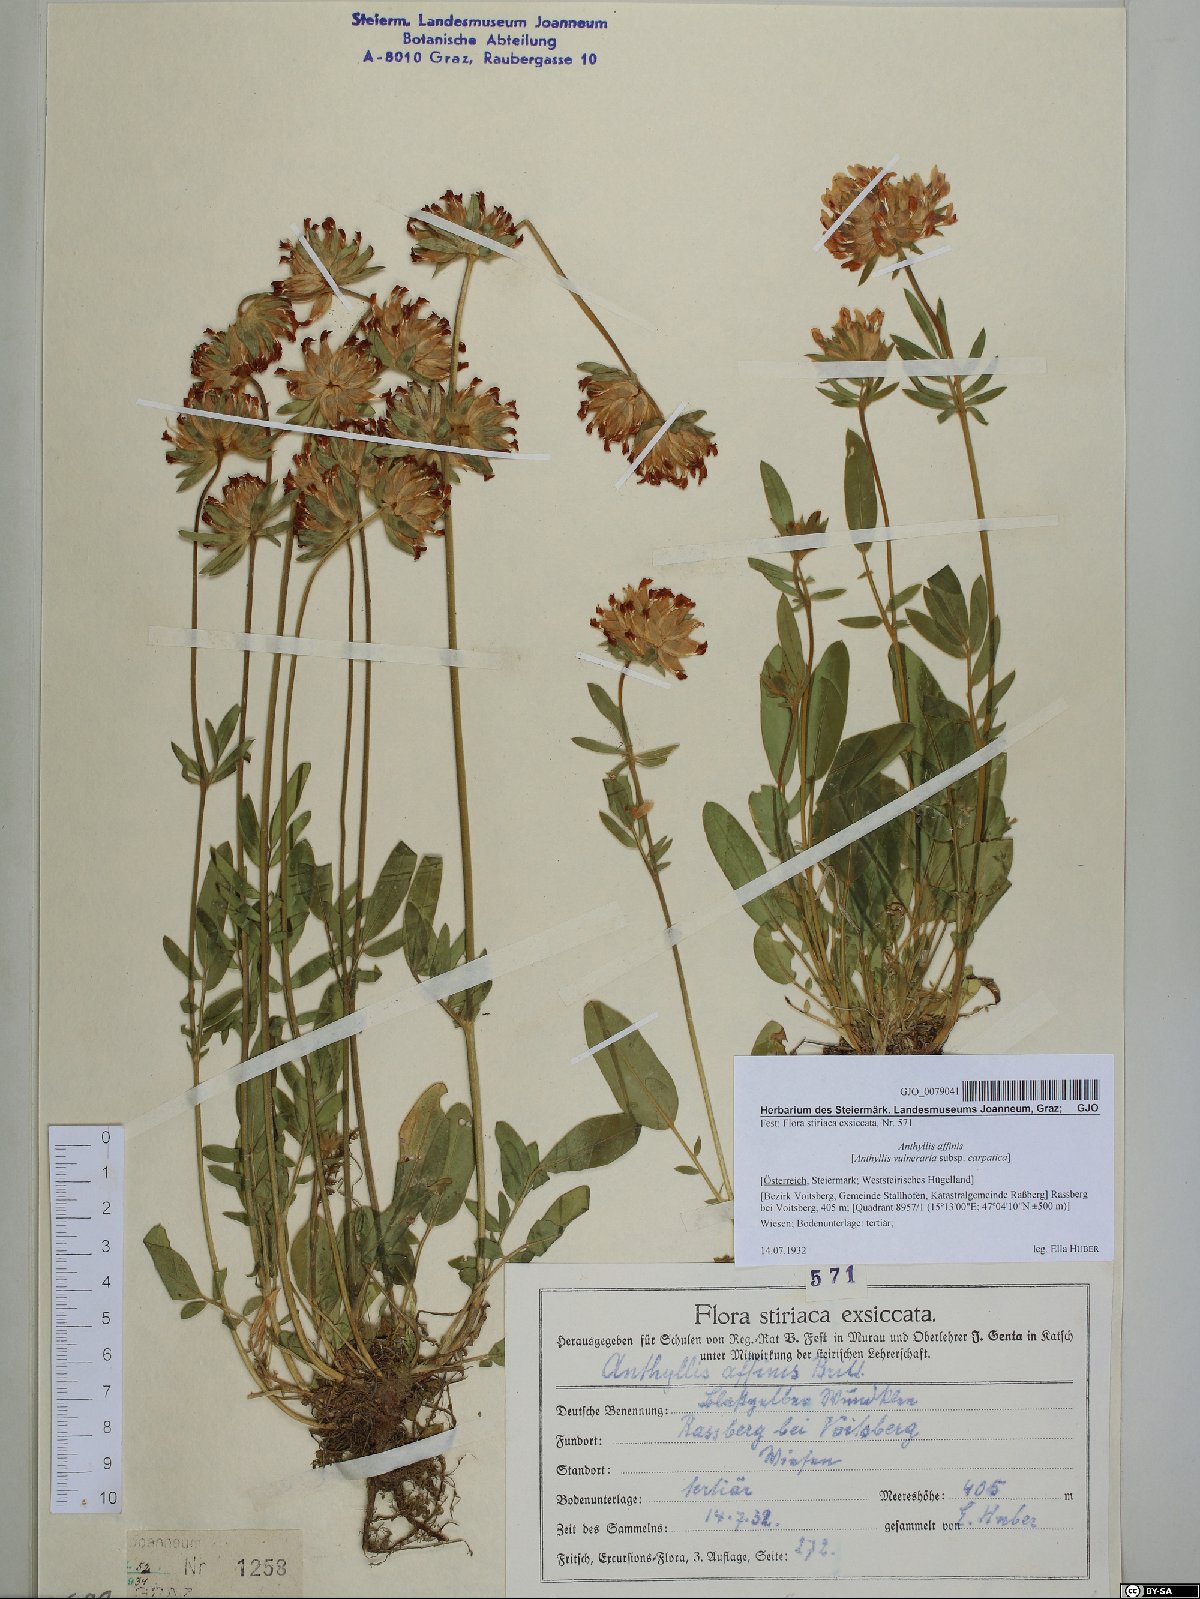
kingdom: Plantae
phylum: Tracheophyta
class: Magnoliopsida
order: Fabales
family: Fabaceae
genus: Anthyllis
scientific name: Anthyllis vulneraria
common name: Kidney vetch
